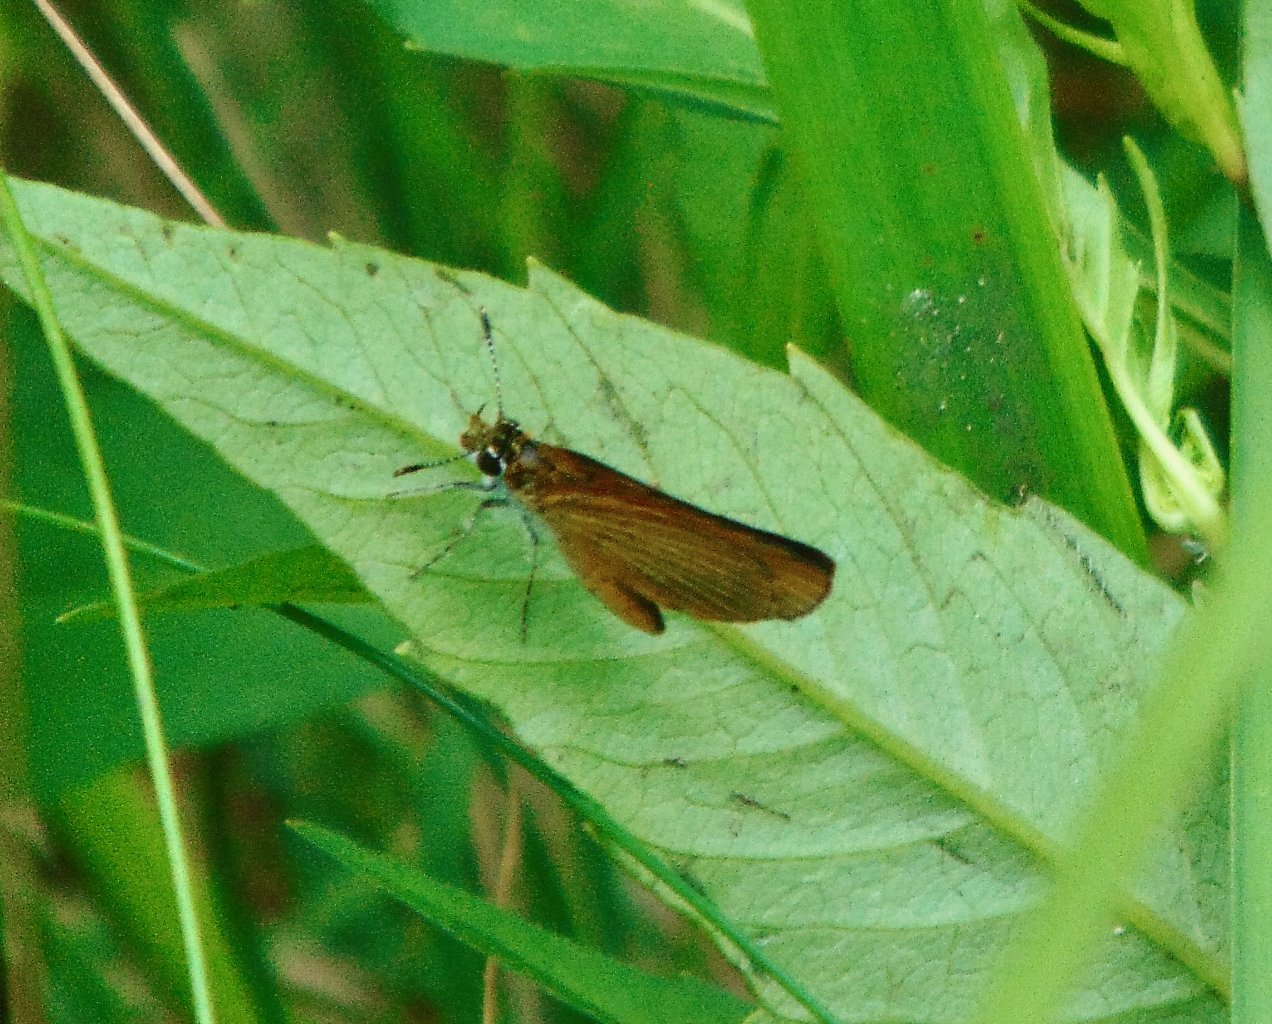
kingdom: Animalia
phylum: Arthropoda
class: Insecta
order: Lepidoptera
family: Hesperiidae
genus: Ancyloxypha
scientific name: Ancyloxypha numitor
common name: Least Skipper
